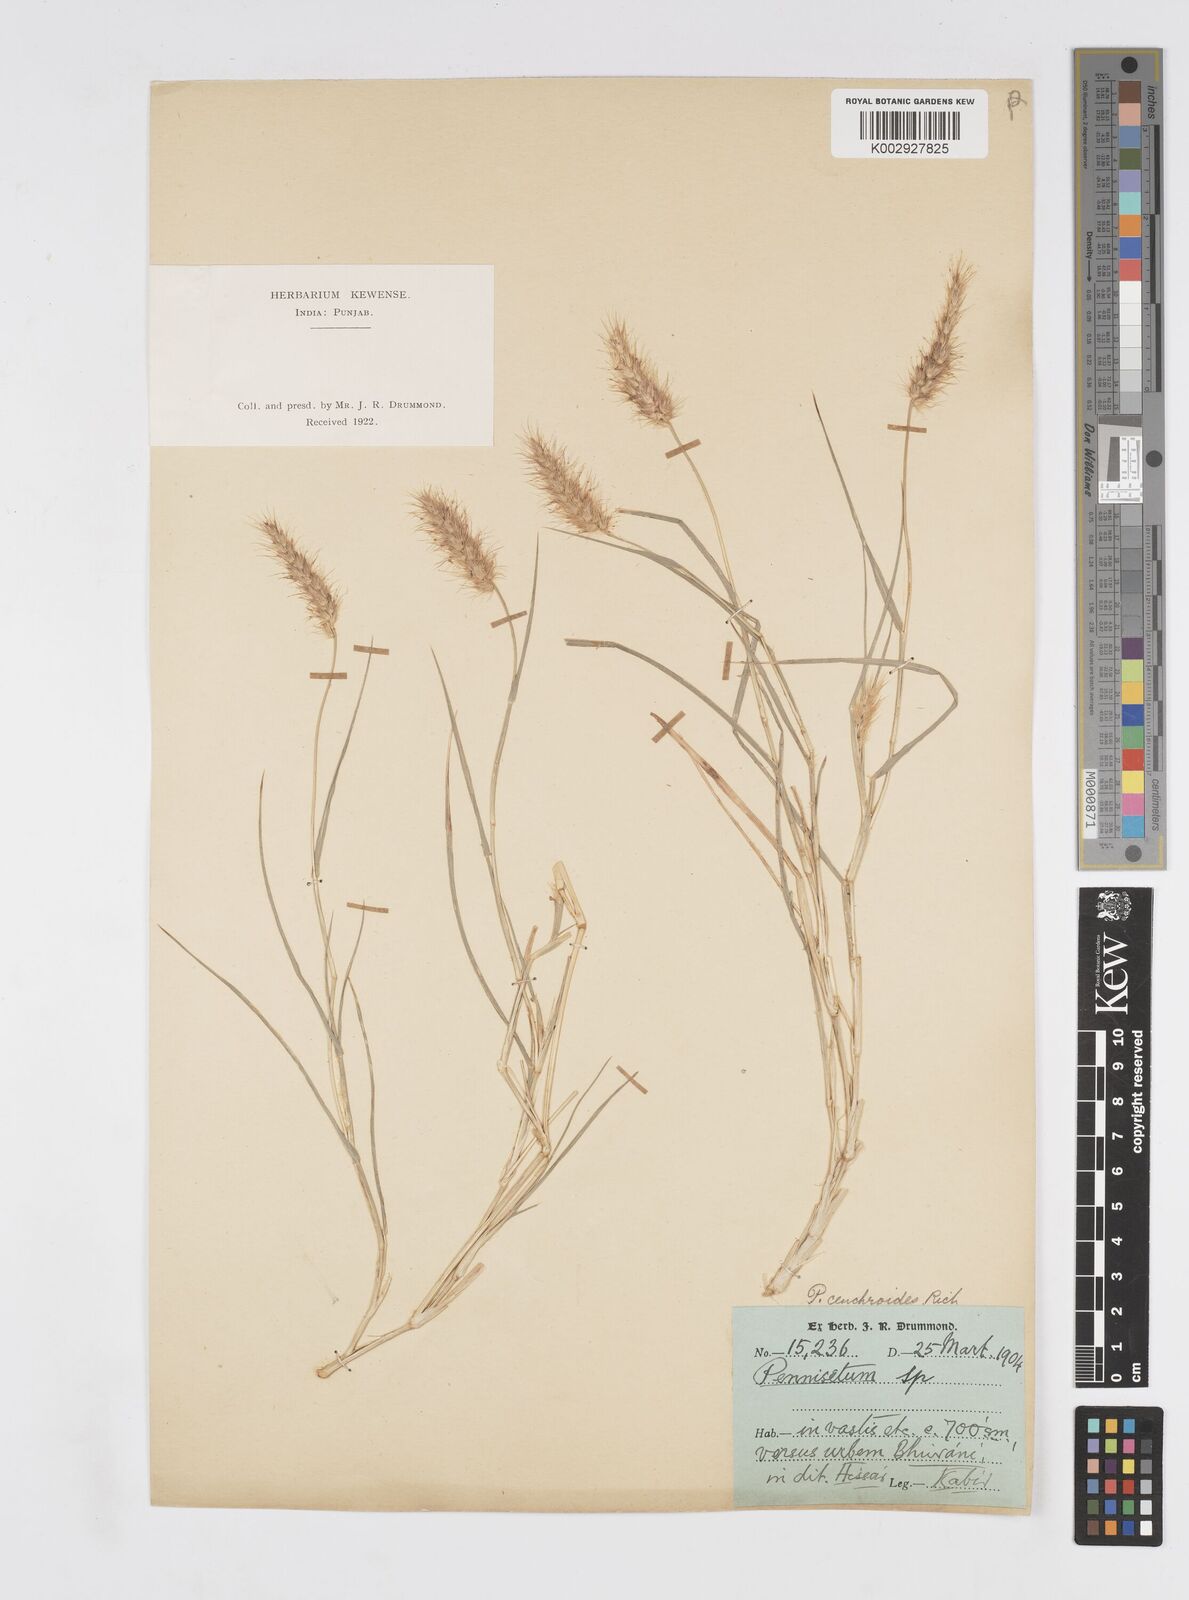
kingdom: Plantae
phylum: Tracheophyta
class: Liliopsida
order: Poales
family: Poaceae
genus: Cenchrus
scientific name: Cenchrus ciliaris
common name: Buffelgrass
